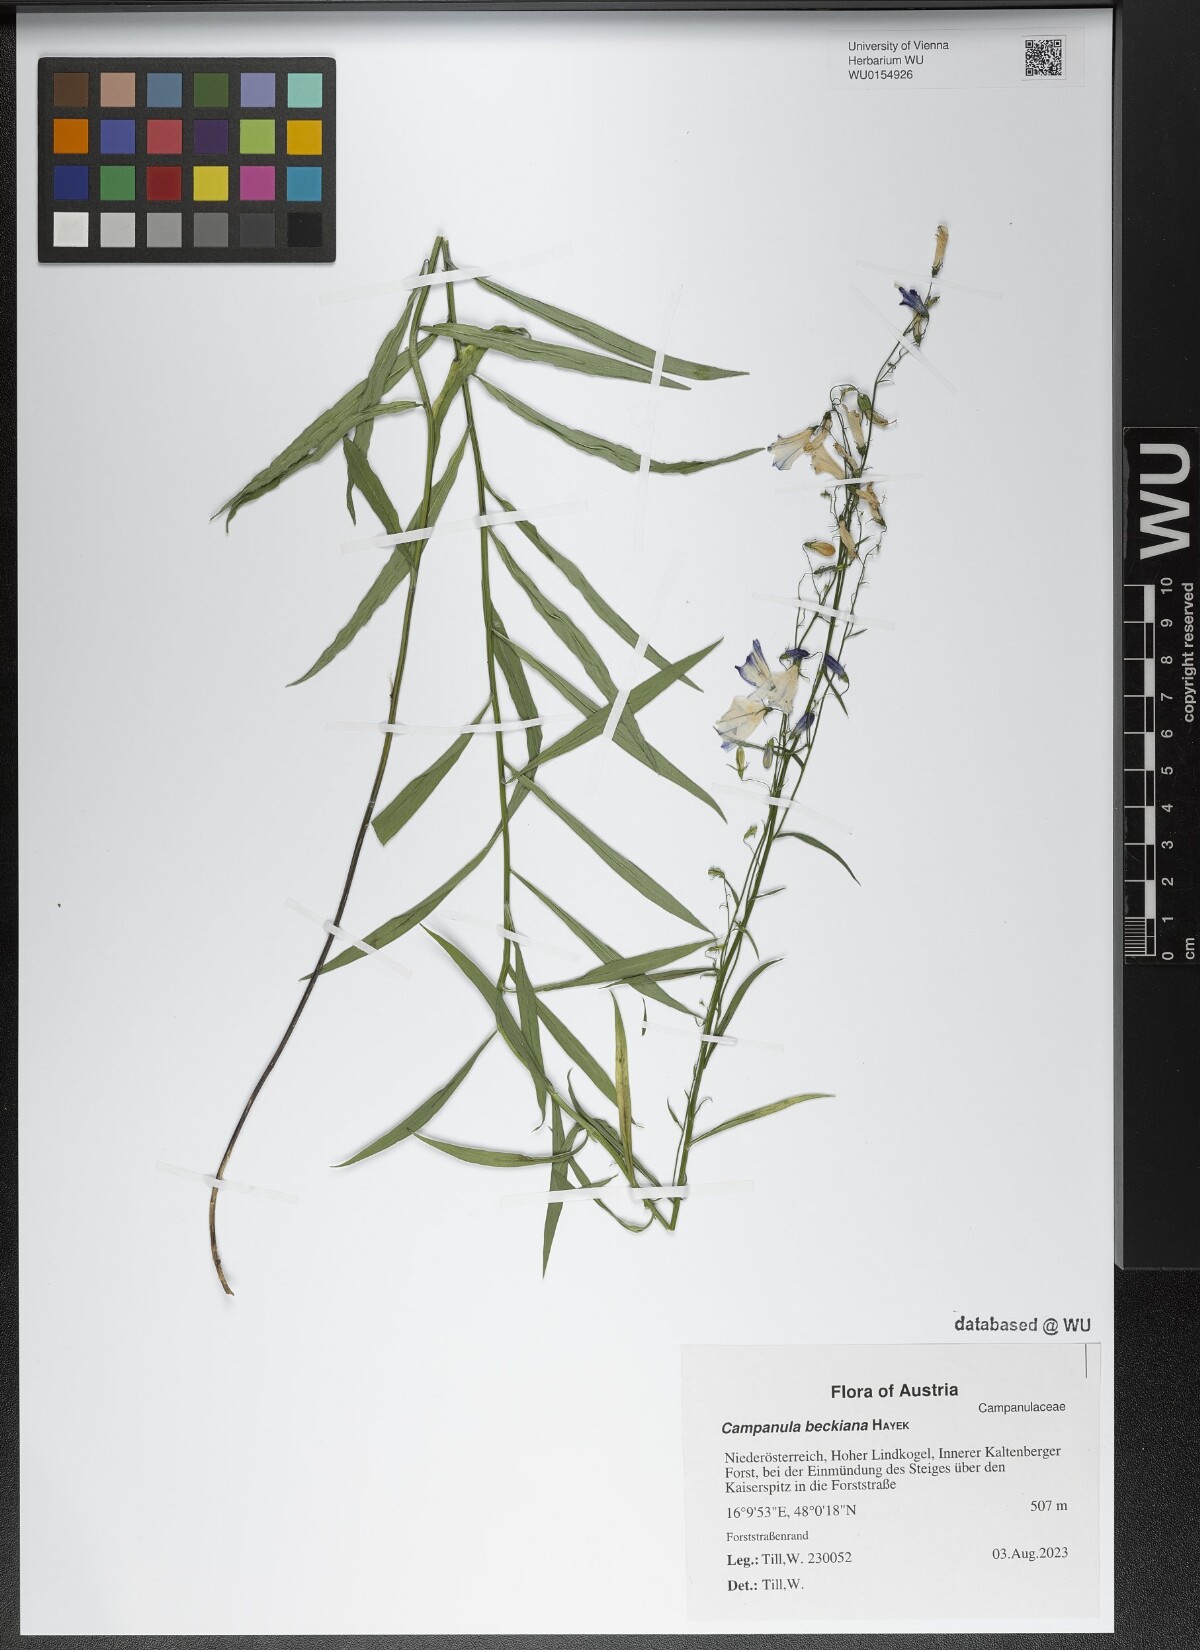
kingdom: Plantae
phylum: Tracheophyta
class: Magnoliopsida
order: Asterales
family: Campanulaceae
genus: Campanula
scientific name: Campanula baumgartenii
